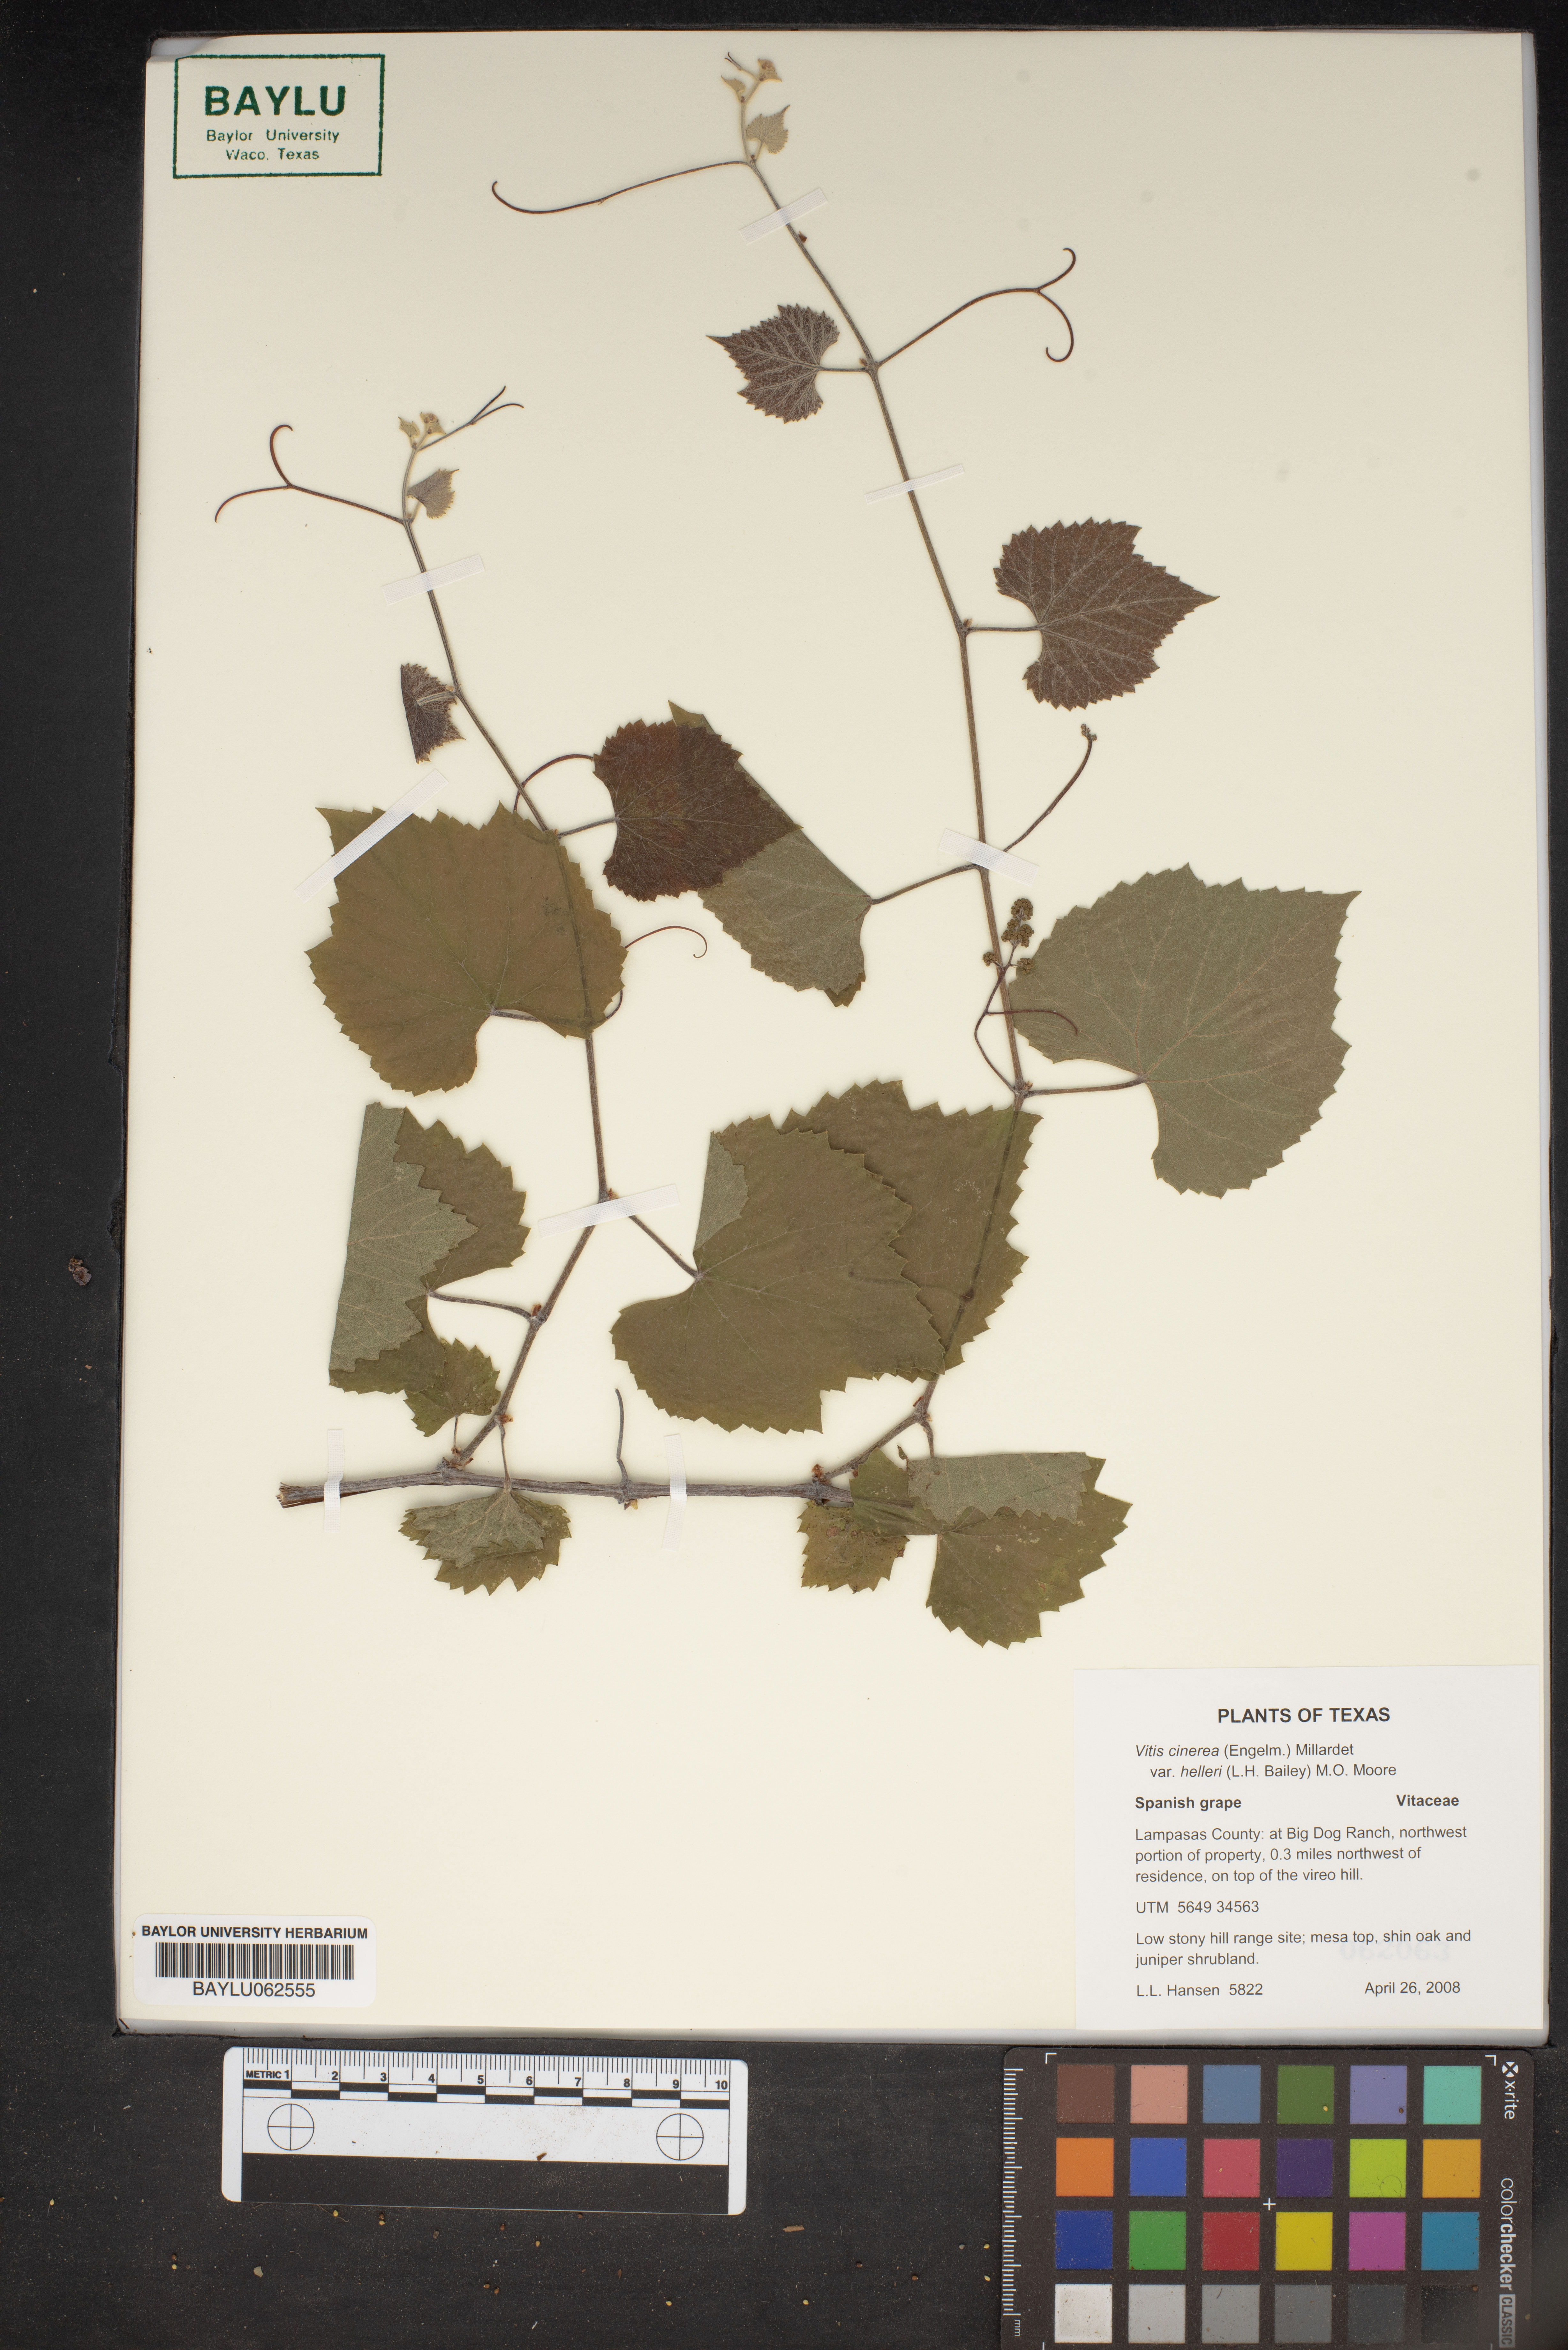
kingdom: Plantae
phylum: Tracheophyta
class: Magnoliopsida
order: Vitales
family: Vitaceae
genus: Vitis
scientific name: Vitis cinerea
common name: Ashy grape
